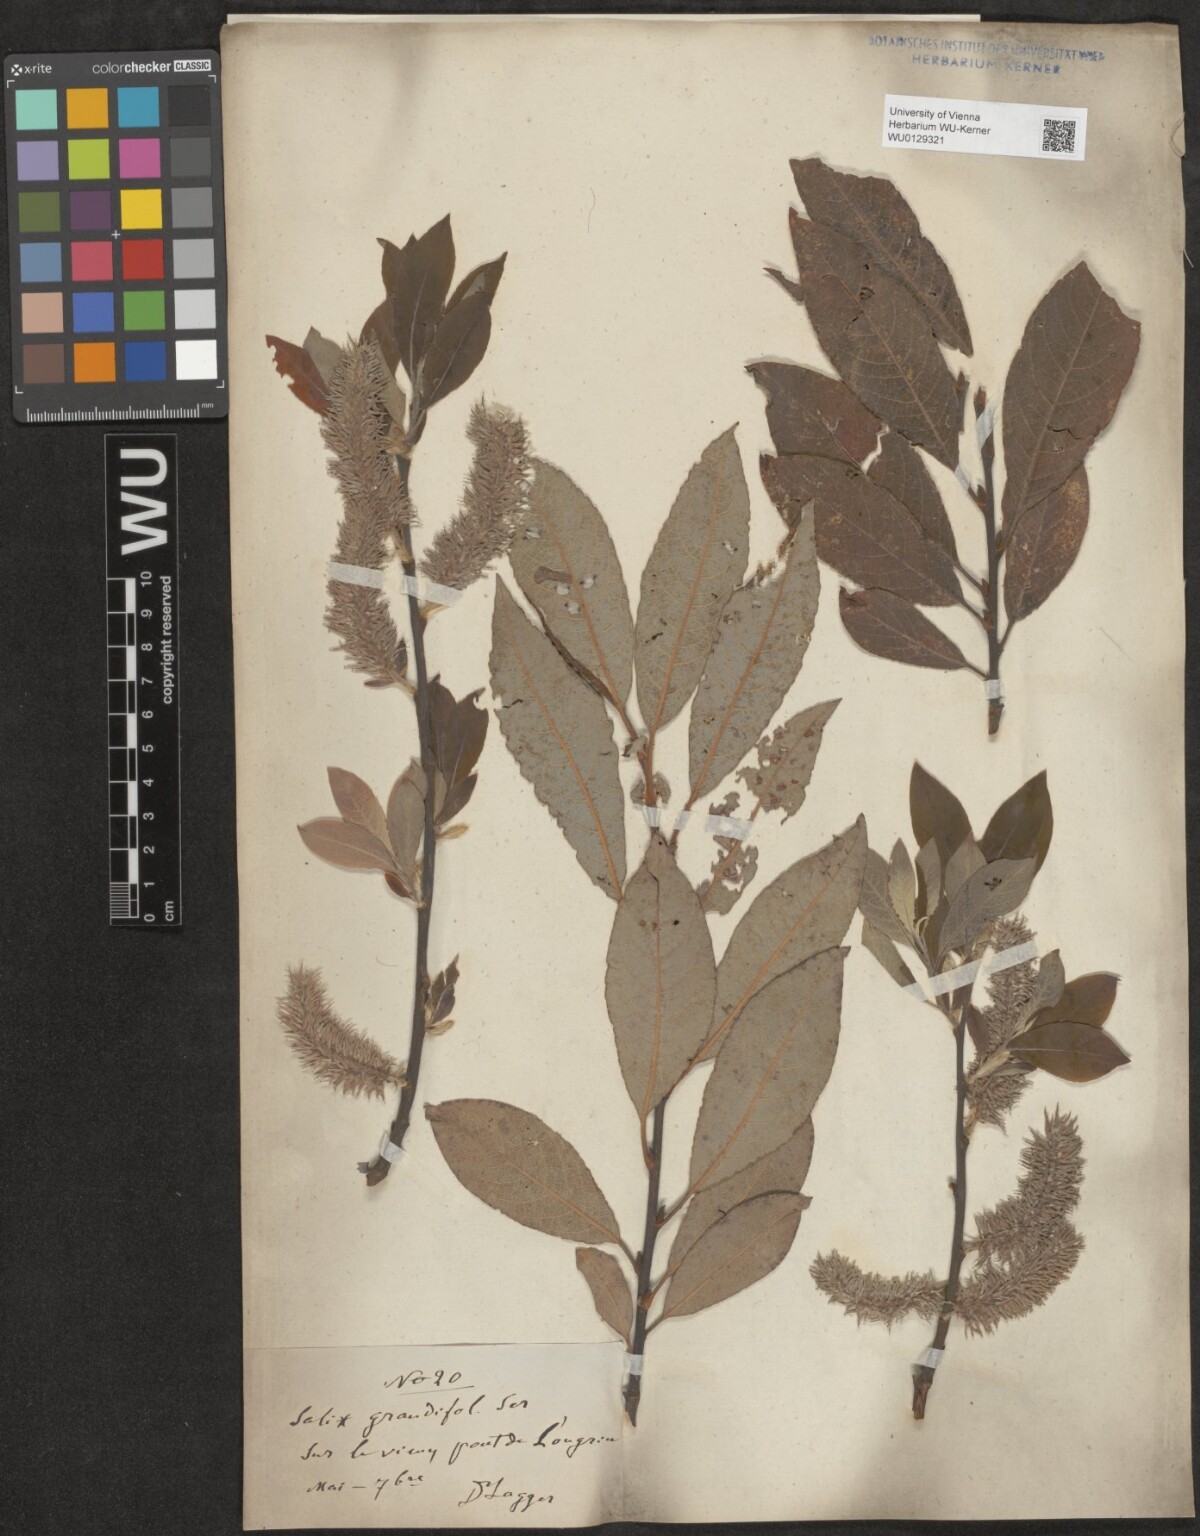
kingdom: Plantae
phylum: Tracheophyta
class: Magnoliopsida
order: Malpighiales
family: Salicaceae
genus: Salix
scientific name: Salix appendiculata
